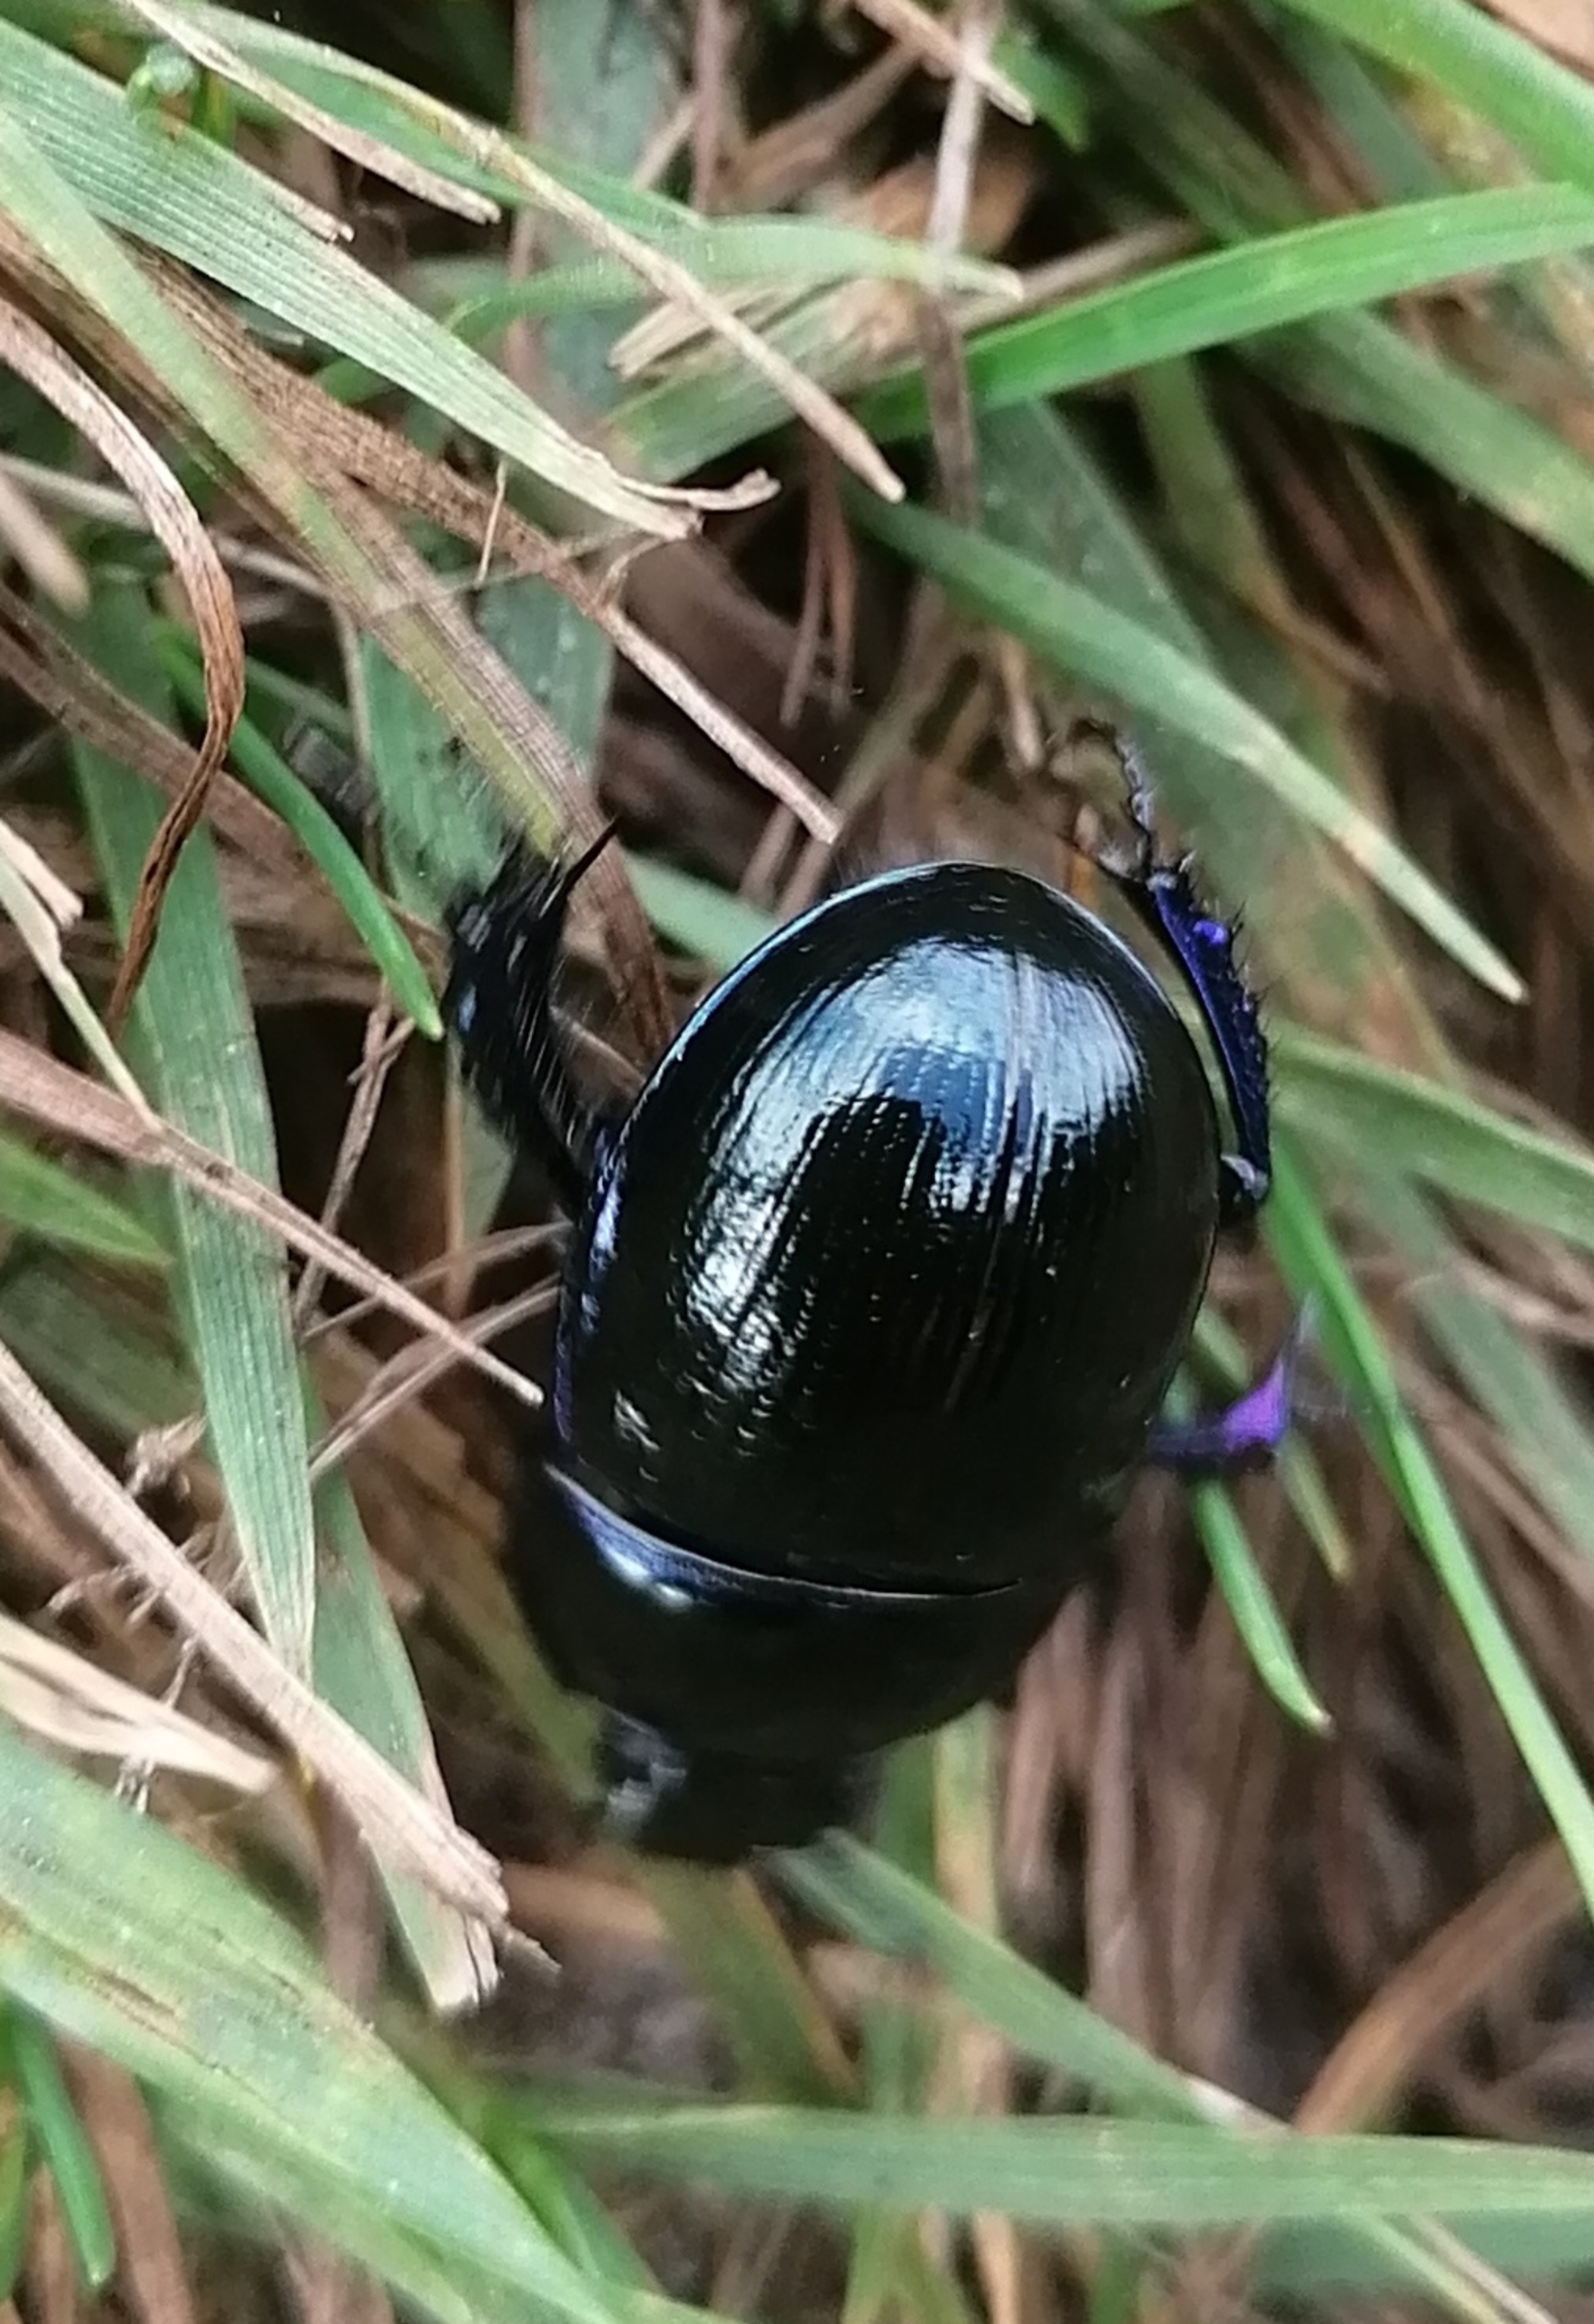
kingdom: Animalia
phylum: Arthropoda
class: Insecta
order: Coleoptera
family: Geotrupidae
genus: Anoplotrupes
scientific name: Anoplotrupes stercorosus
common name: Skovskarnbasse
